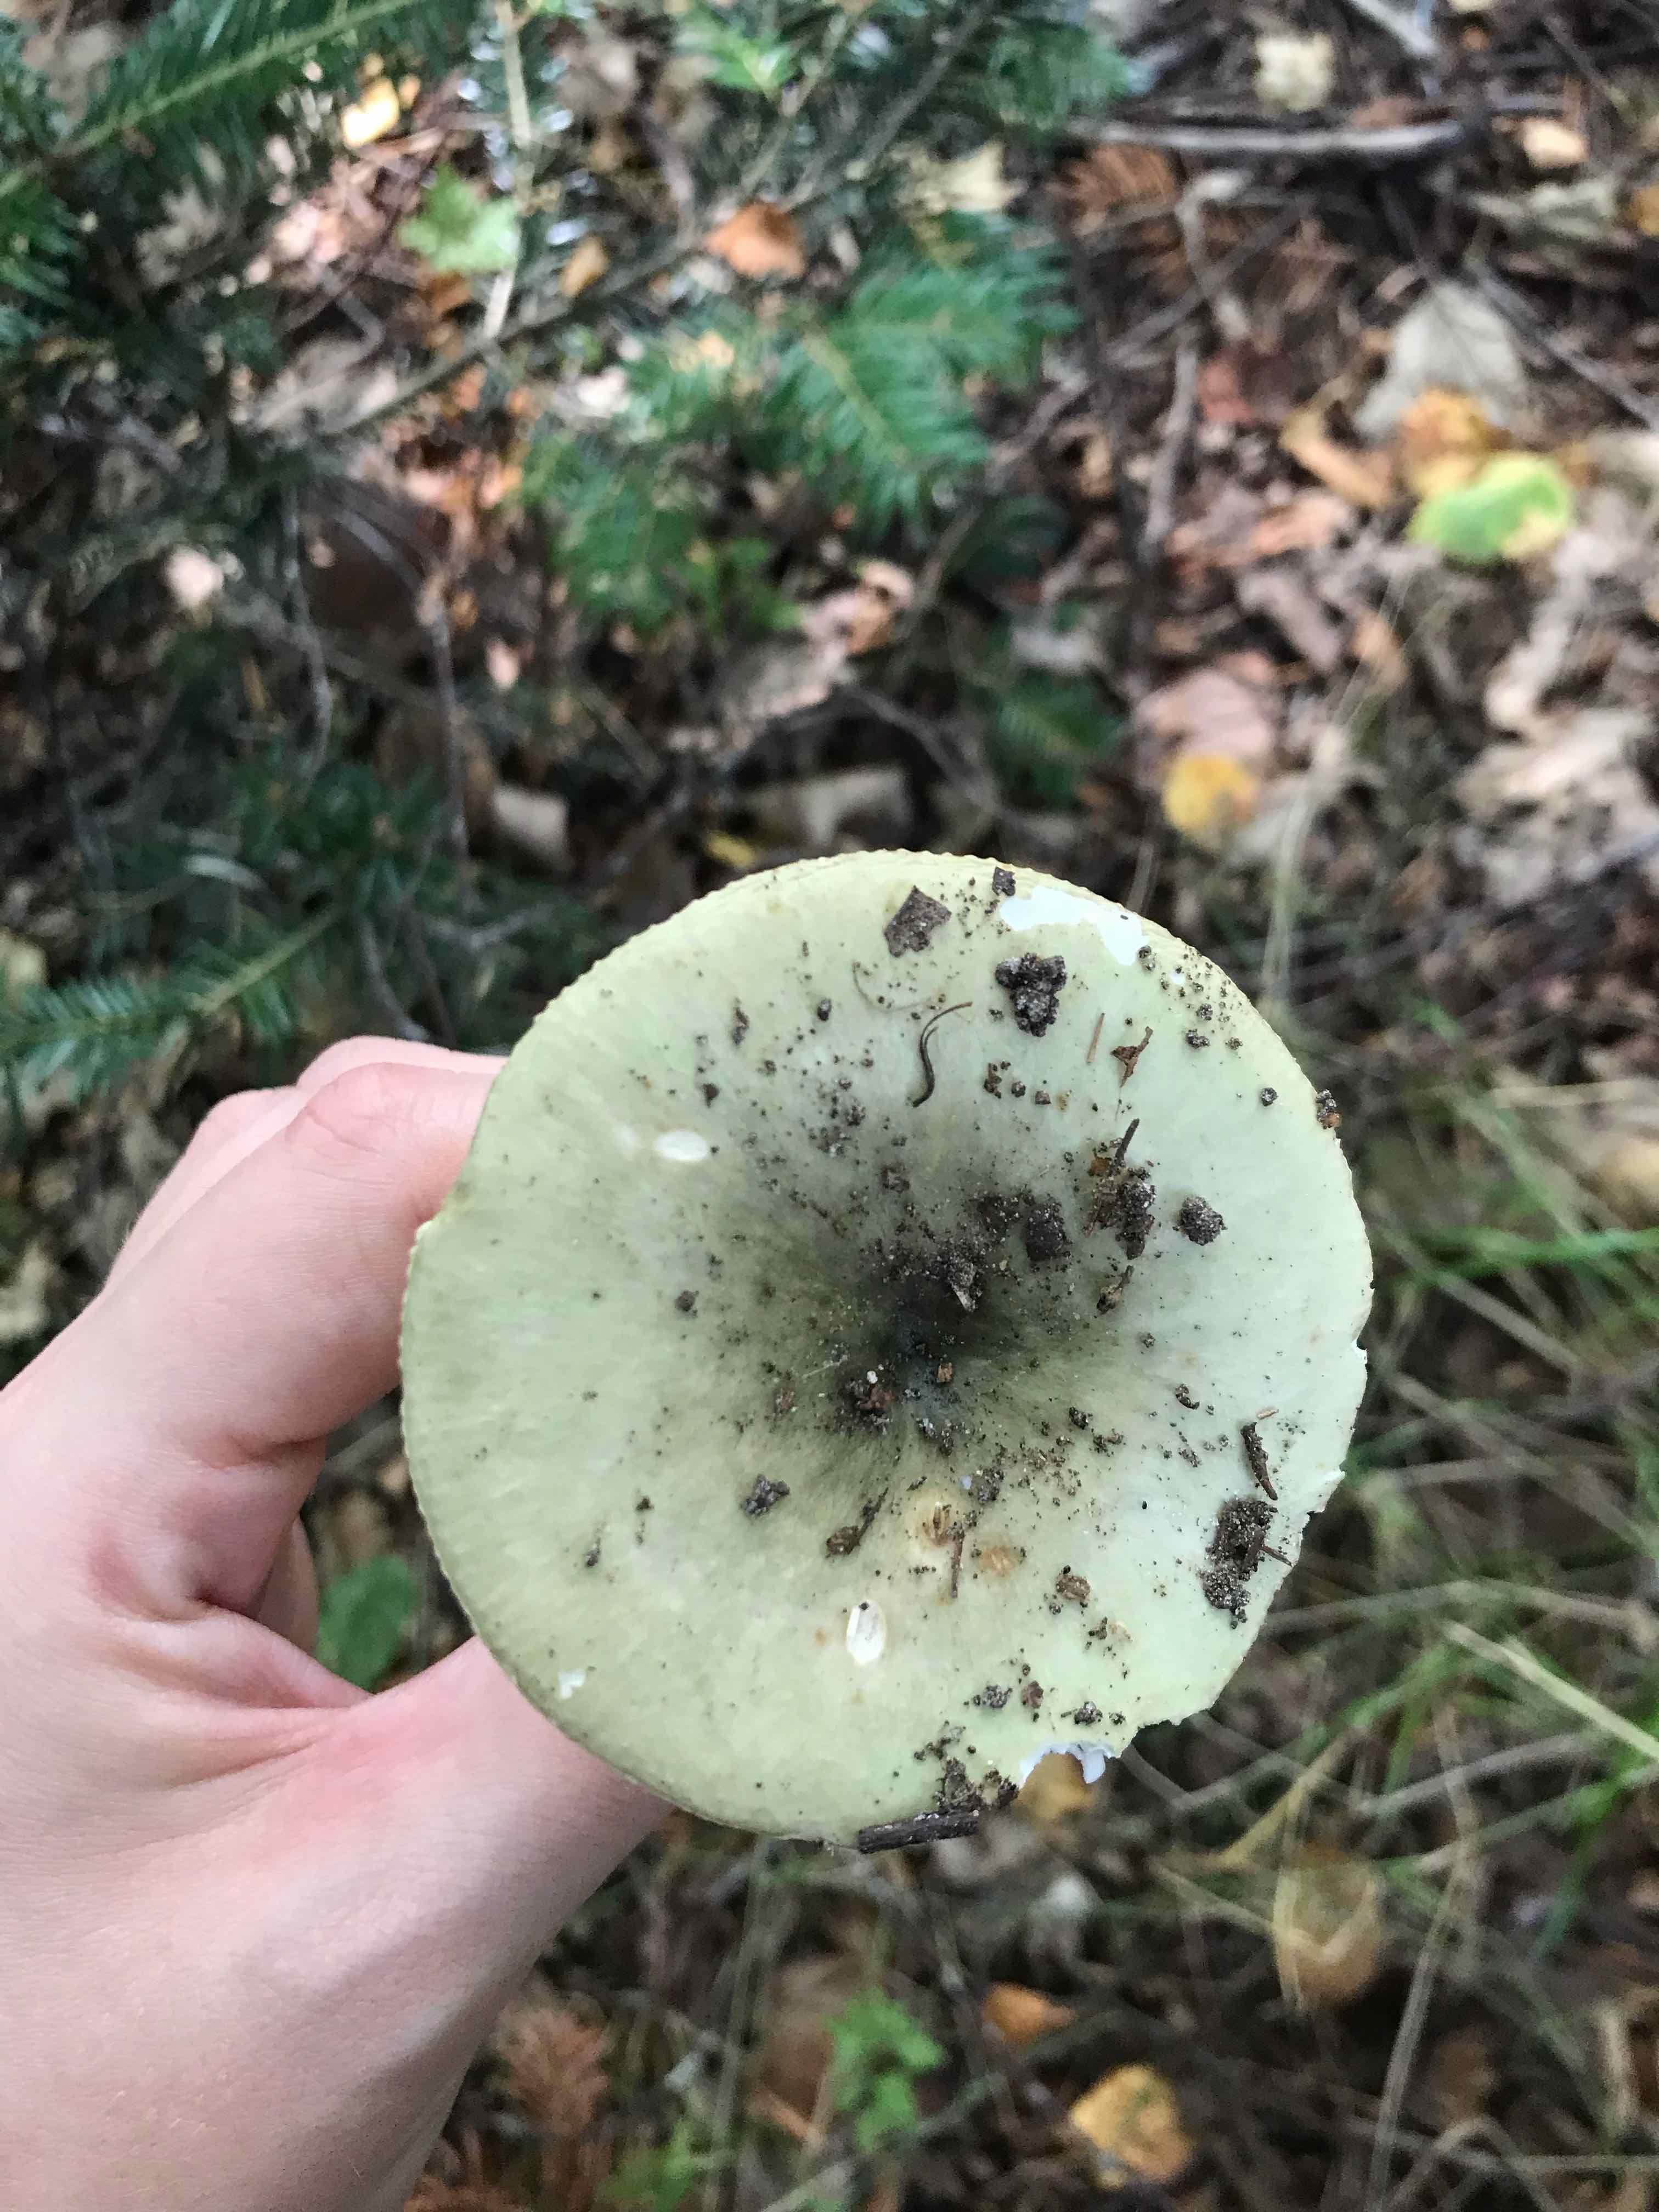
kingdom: Fungi
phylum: Basidiomycota
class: Agaricomycetes
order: Russulales
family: Russulaceae
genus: Russula
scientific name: Russula aeruginea
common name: græsgrøn skørhat
